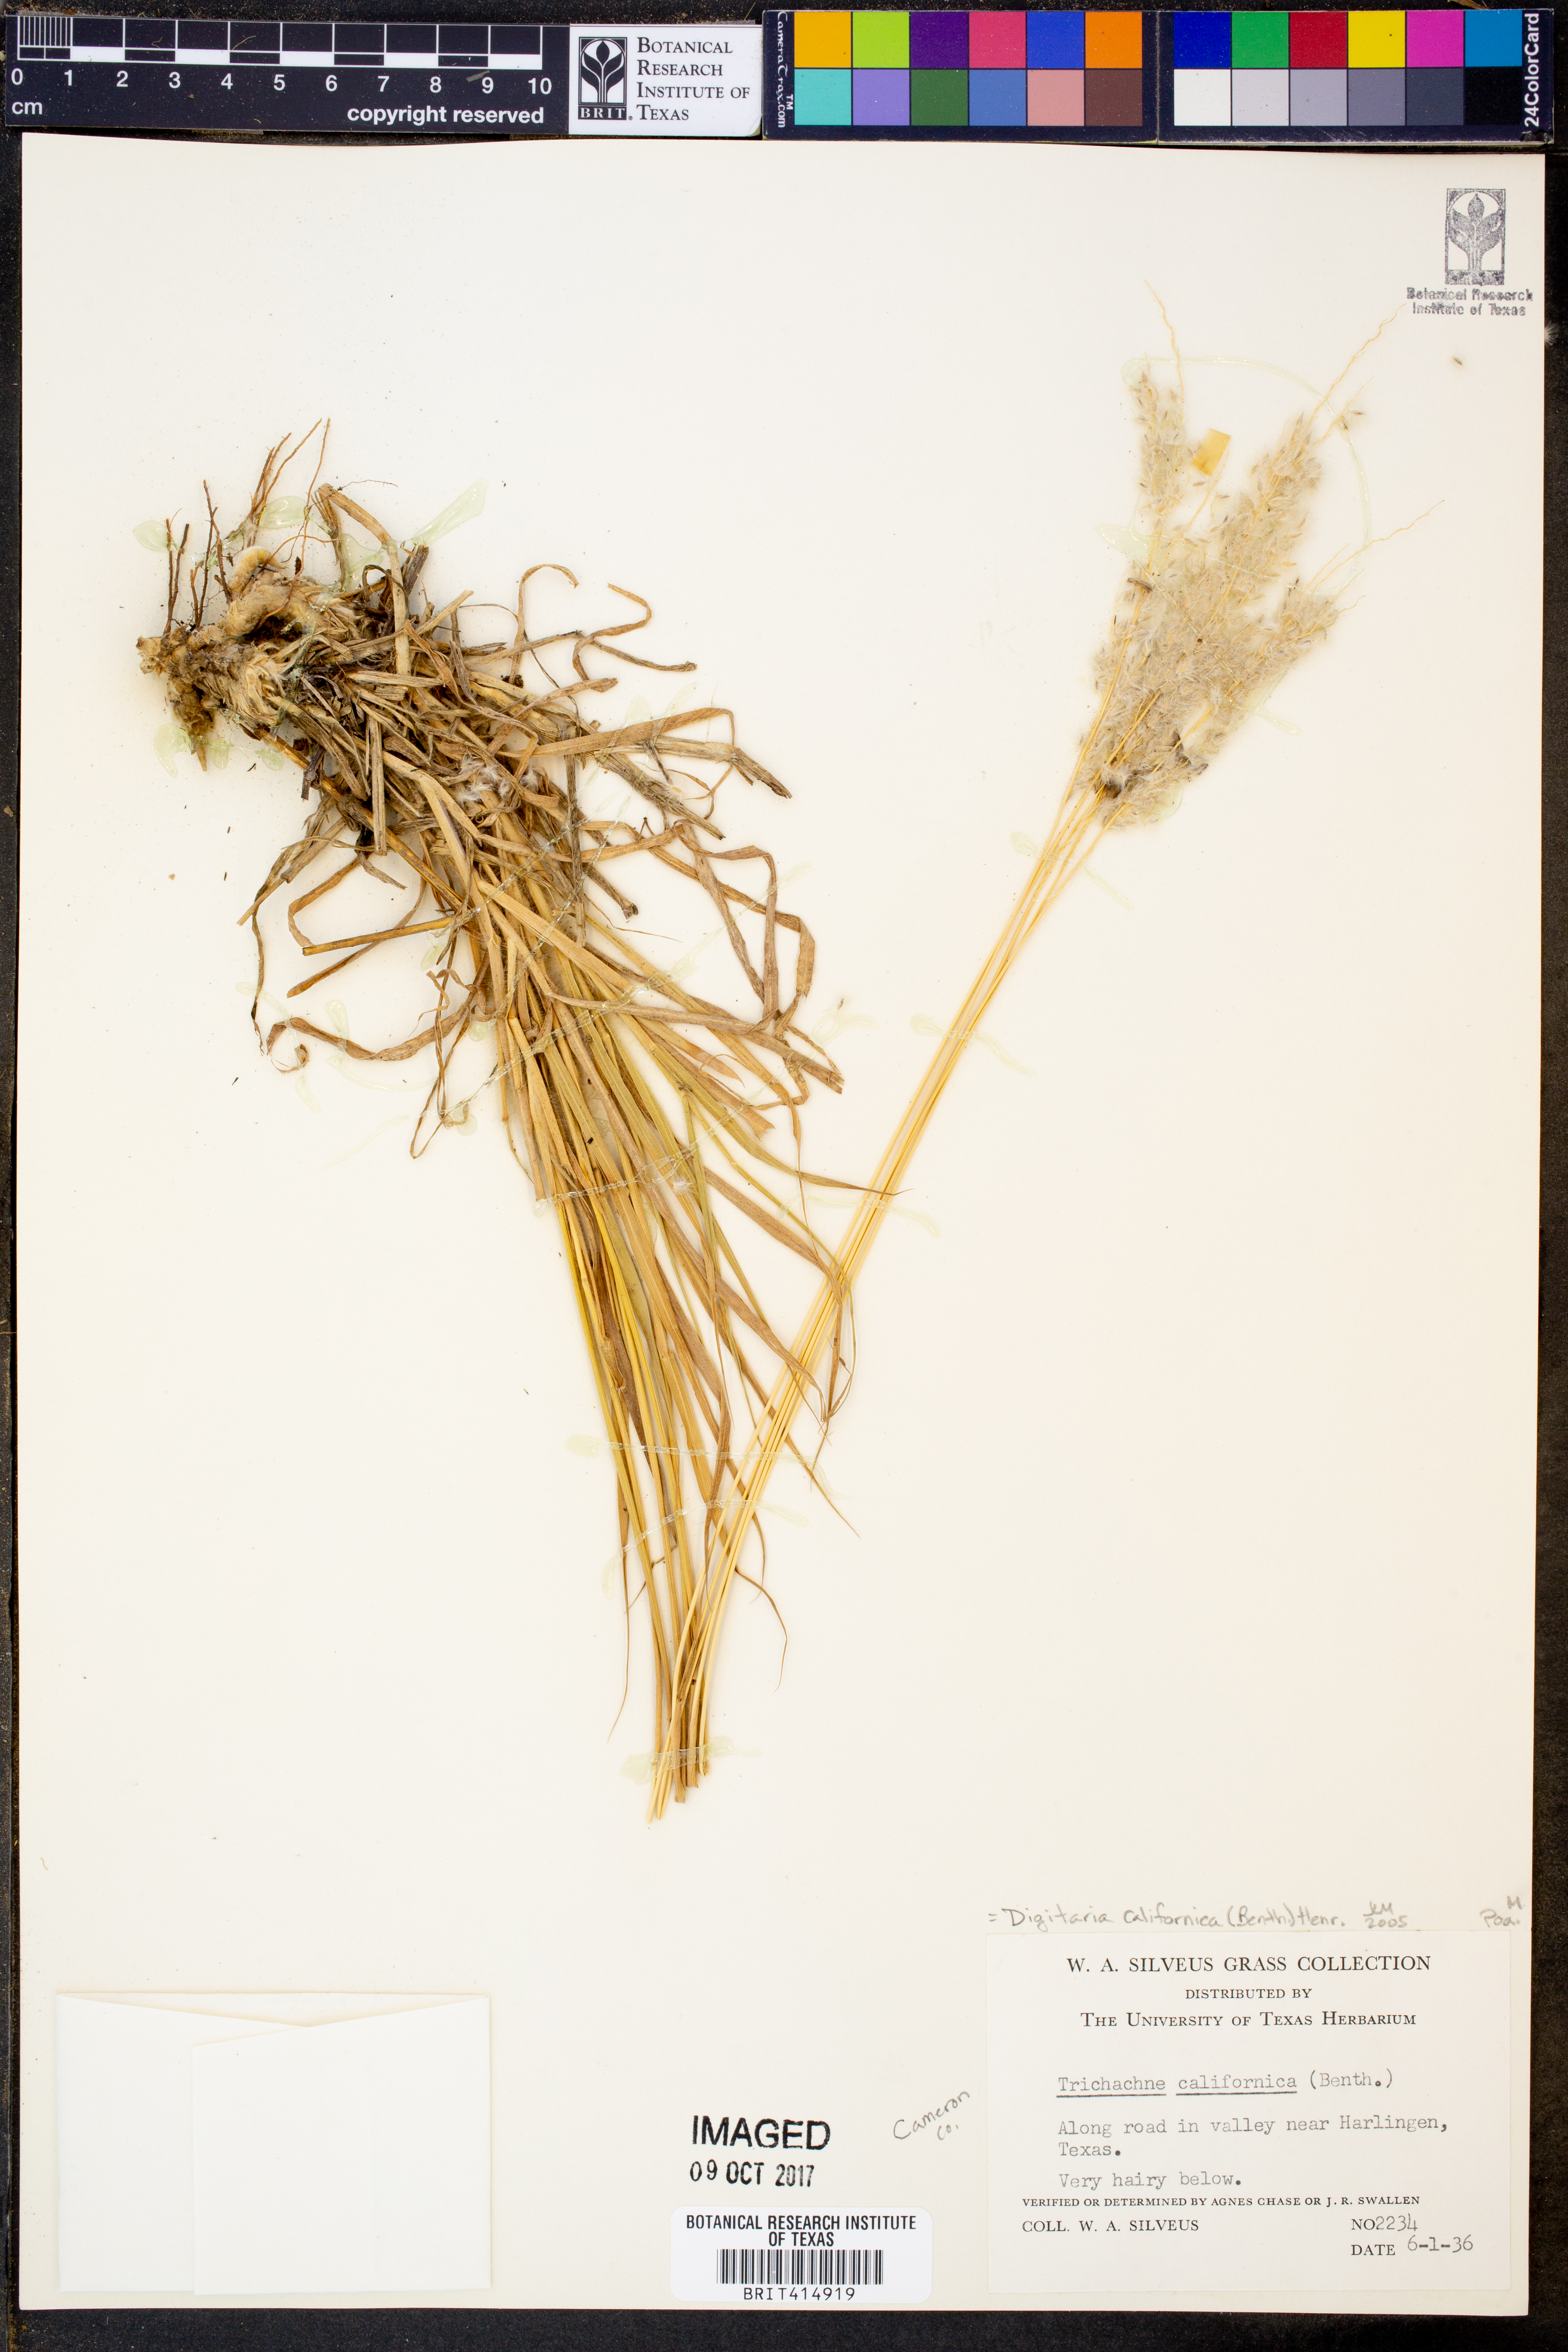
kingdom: Plantae
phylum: Tracheophyta
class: Liliopsida
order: Poales
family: Poaceae
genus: Digitaria
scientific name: Digitaria californica
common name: Arizona cottontop
